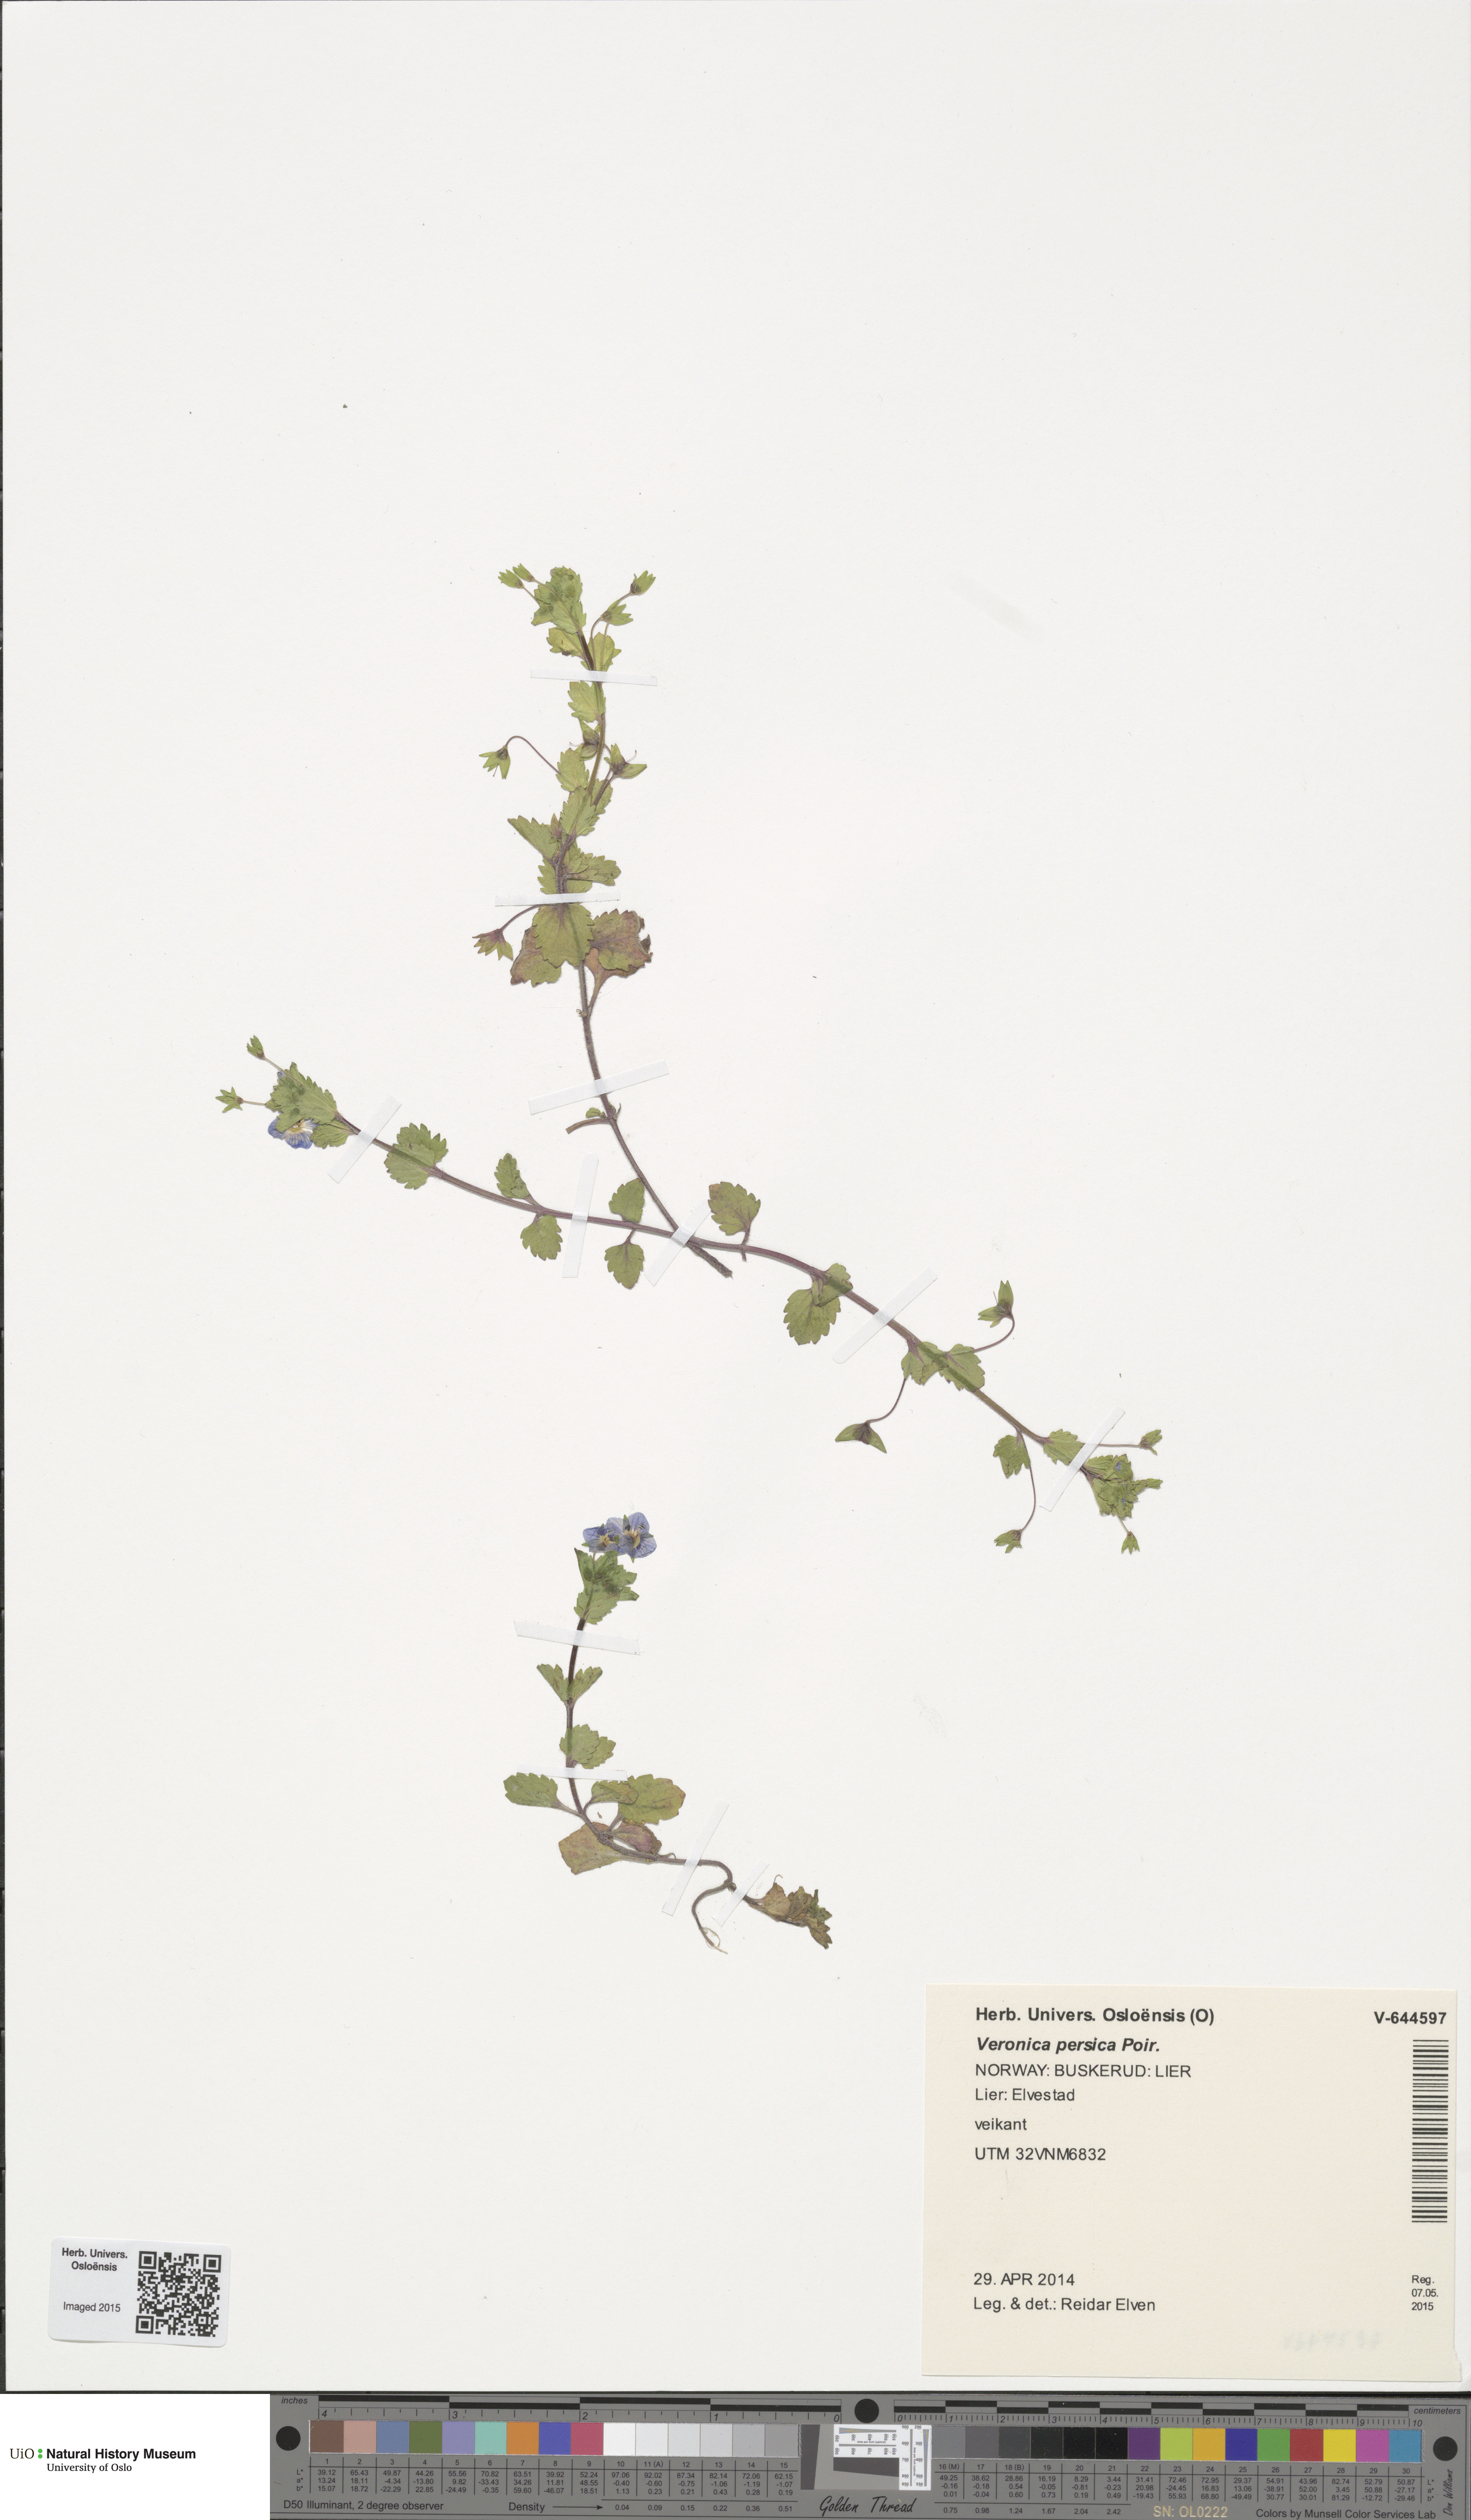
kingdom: Plantae
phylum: Tracheophyta
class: Magnoliopsida
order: Lamiales
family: Plantaginaceae
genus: Veronica
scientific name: Veronica persica
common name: Common field-speedwell
